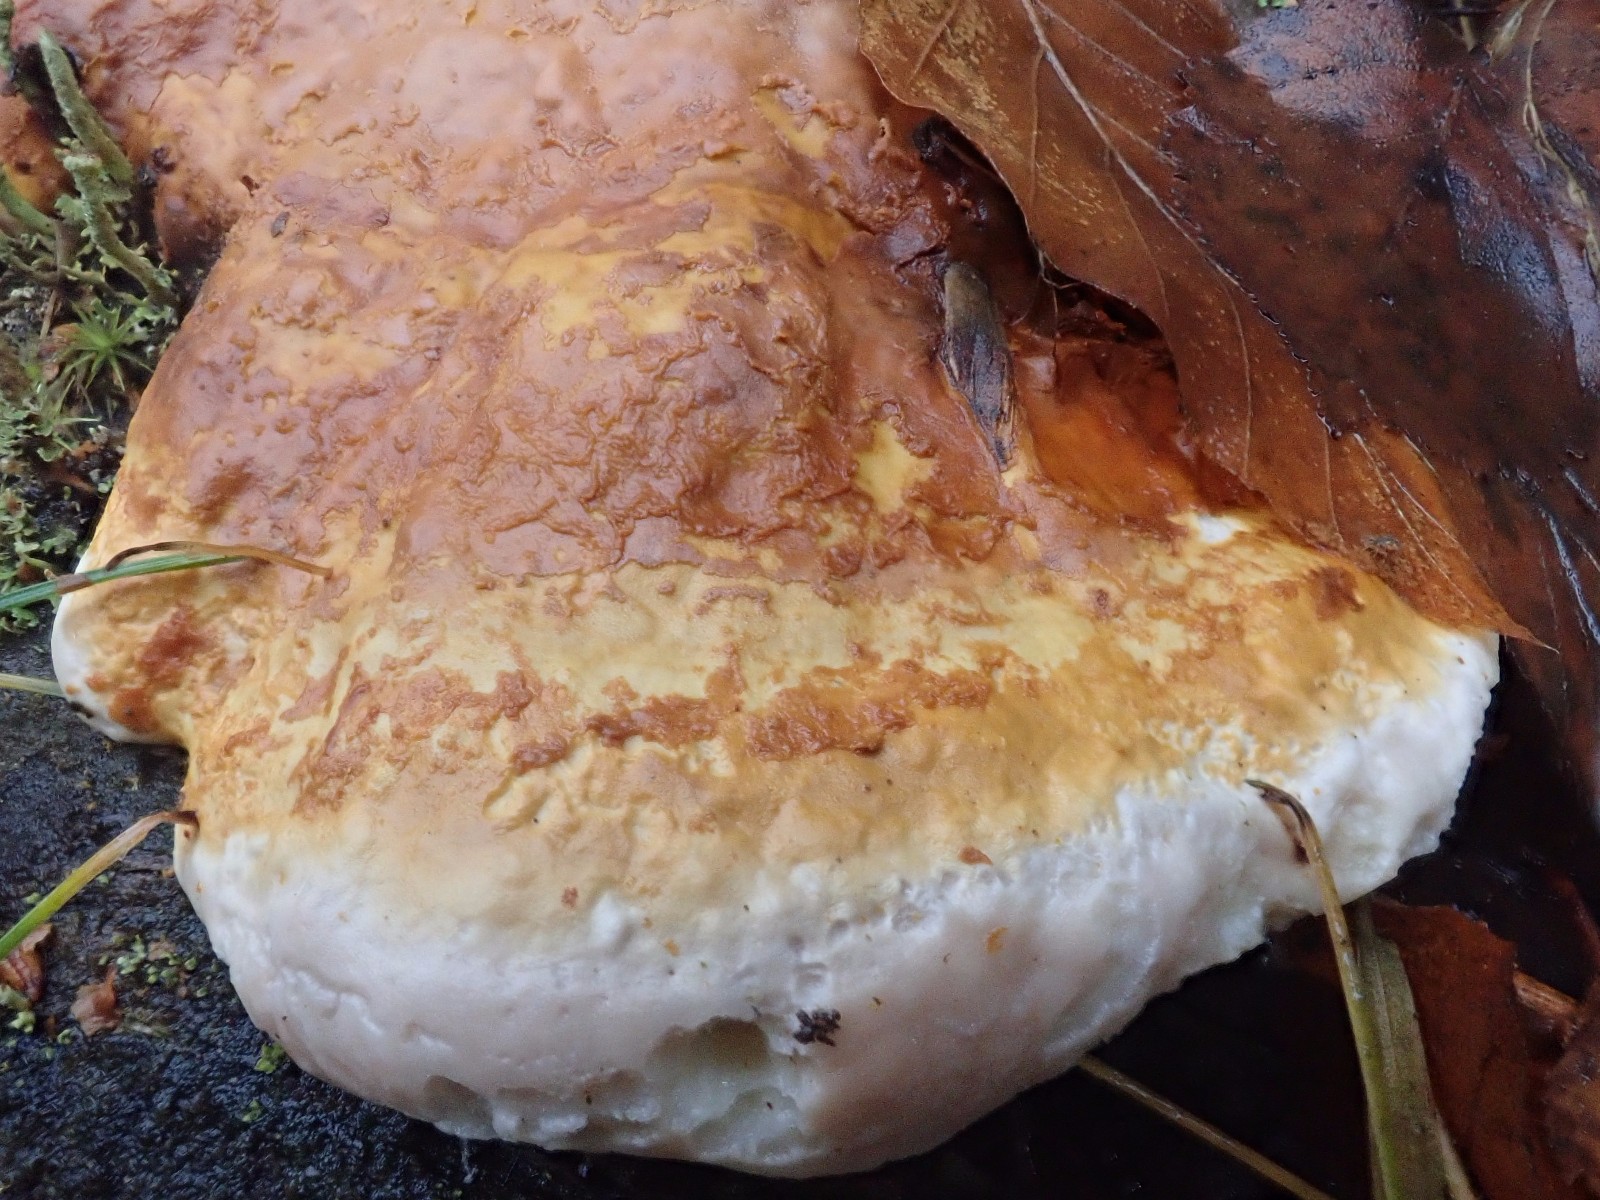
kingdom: Fungi
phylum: Basidiomycota
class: Agaricomycetes
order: Polyporales
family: Fomitopsidaceae
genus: Fomitopsis
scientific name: Fomitopsis pinicola
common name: randbæltet hovporesvamp
